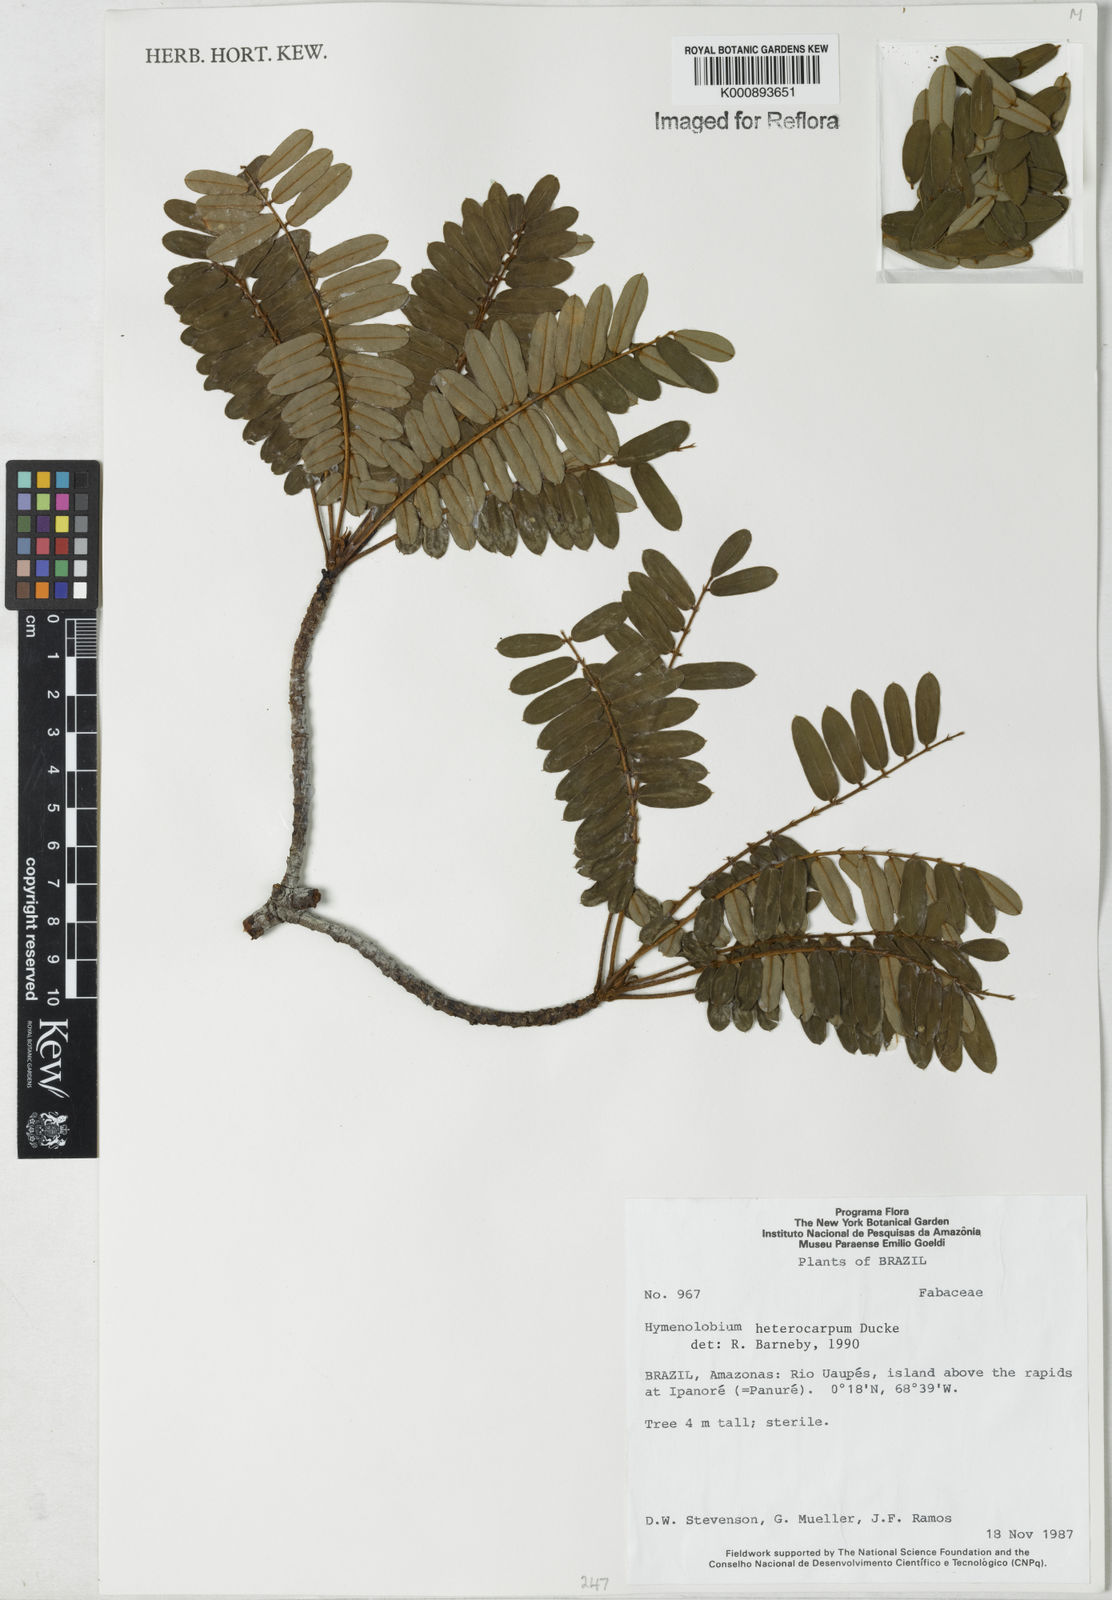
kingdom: Plantae
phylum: Tracheophyta
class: Magnoliopsida
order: Fabales
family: Fabaceae
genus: Hymenolobium
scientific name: Hymenolobium heterocarpum
